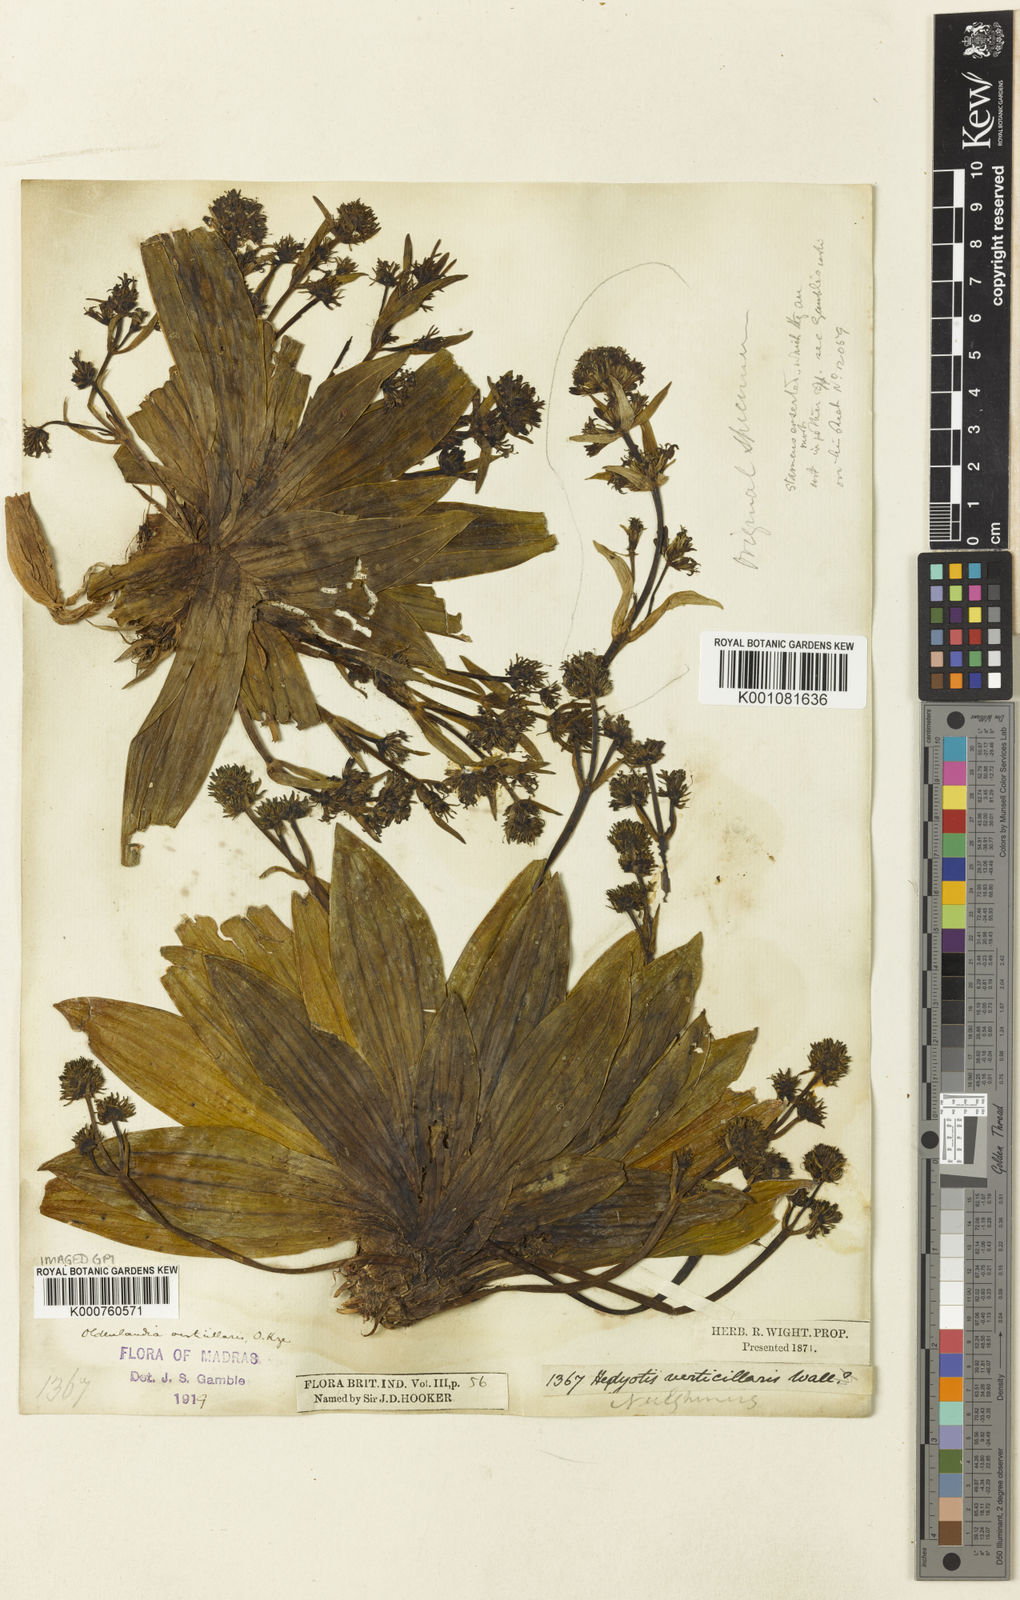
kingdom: Plantae
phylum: Tracheophyta
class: Magnoliopsida
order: Gentianales
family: Rubiaceae
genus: Hedyotis
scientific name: Hedyotis verticillaris
